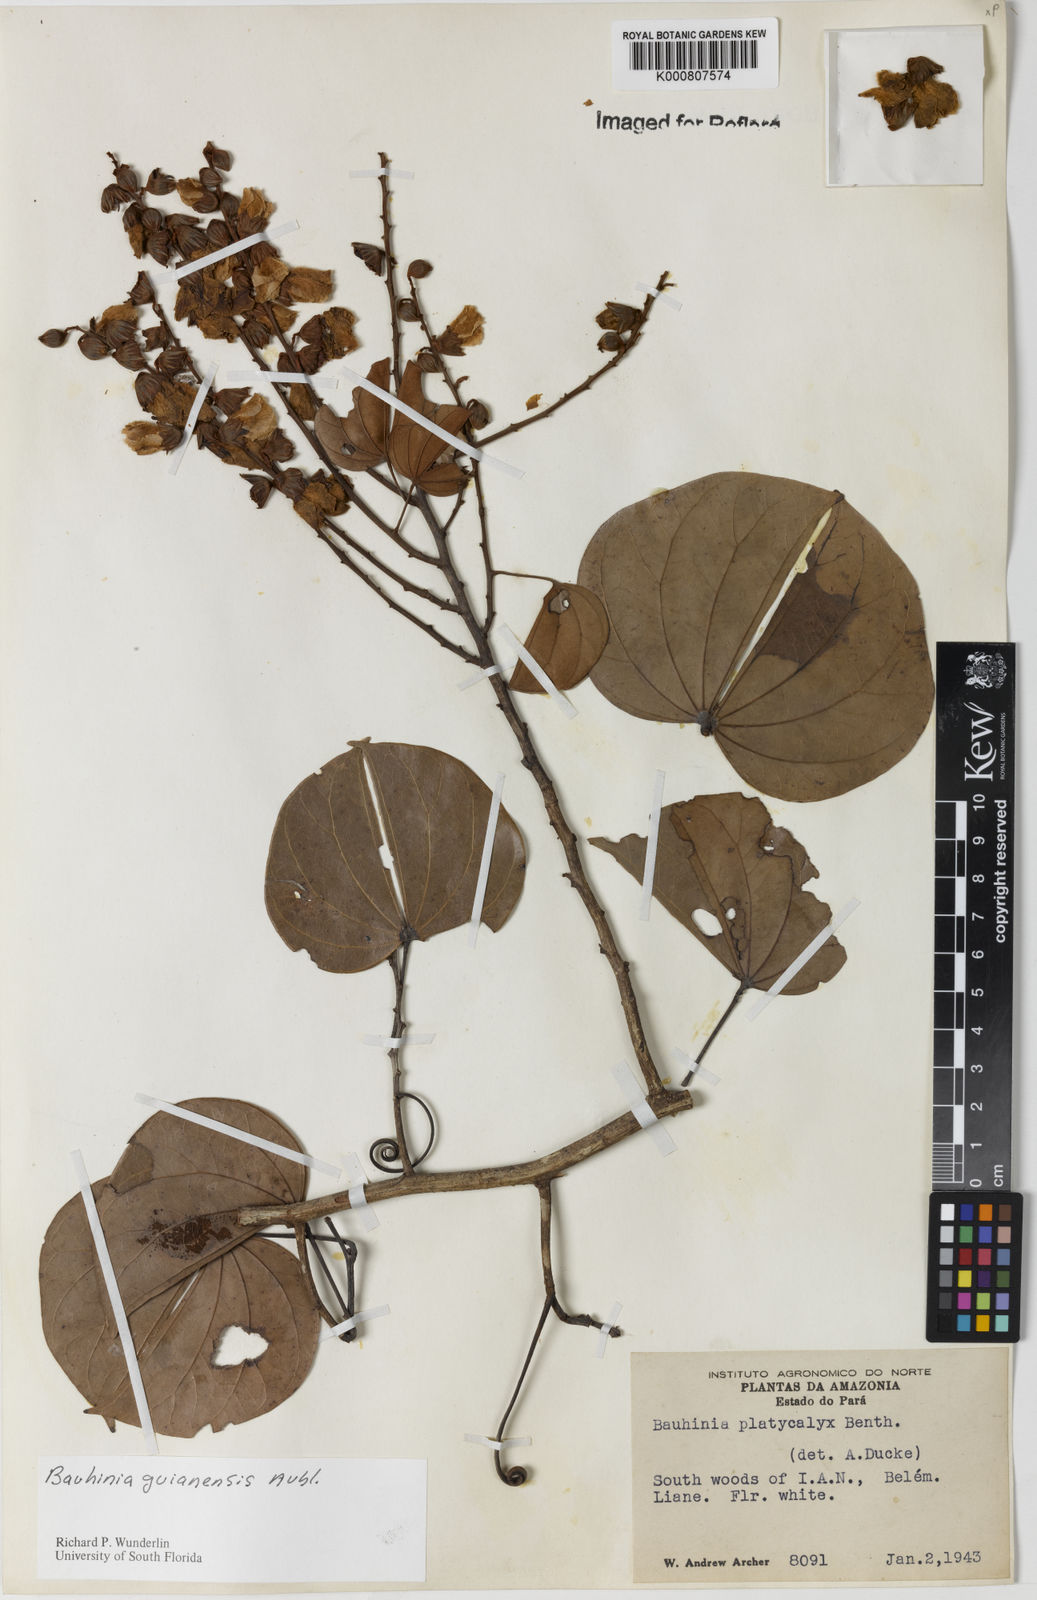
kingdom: Plantae
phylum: Tracheophyta
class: Magnoliopsida
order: Fabales
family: Fabaceae
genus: Schnella
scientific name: Schnella guianensis
